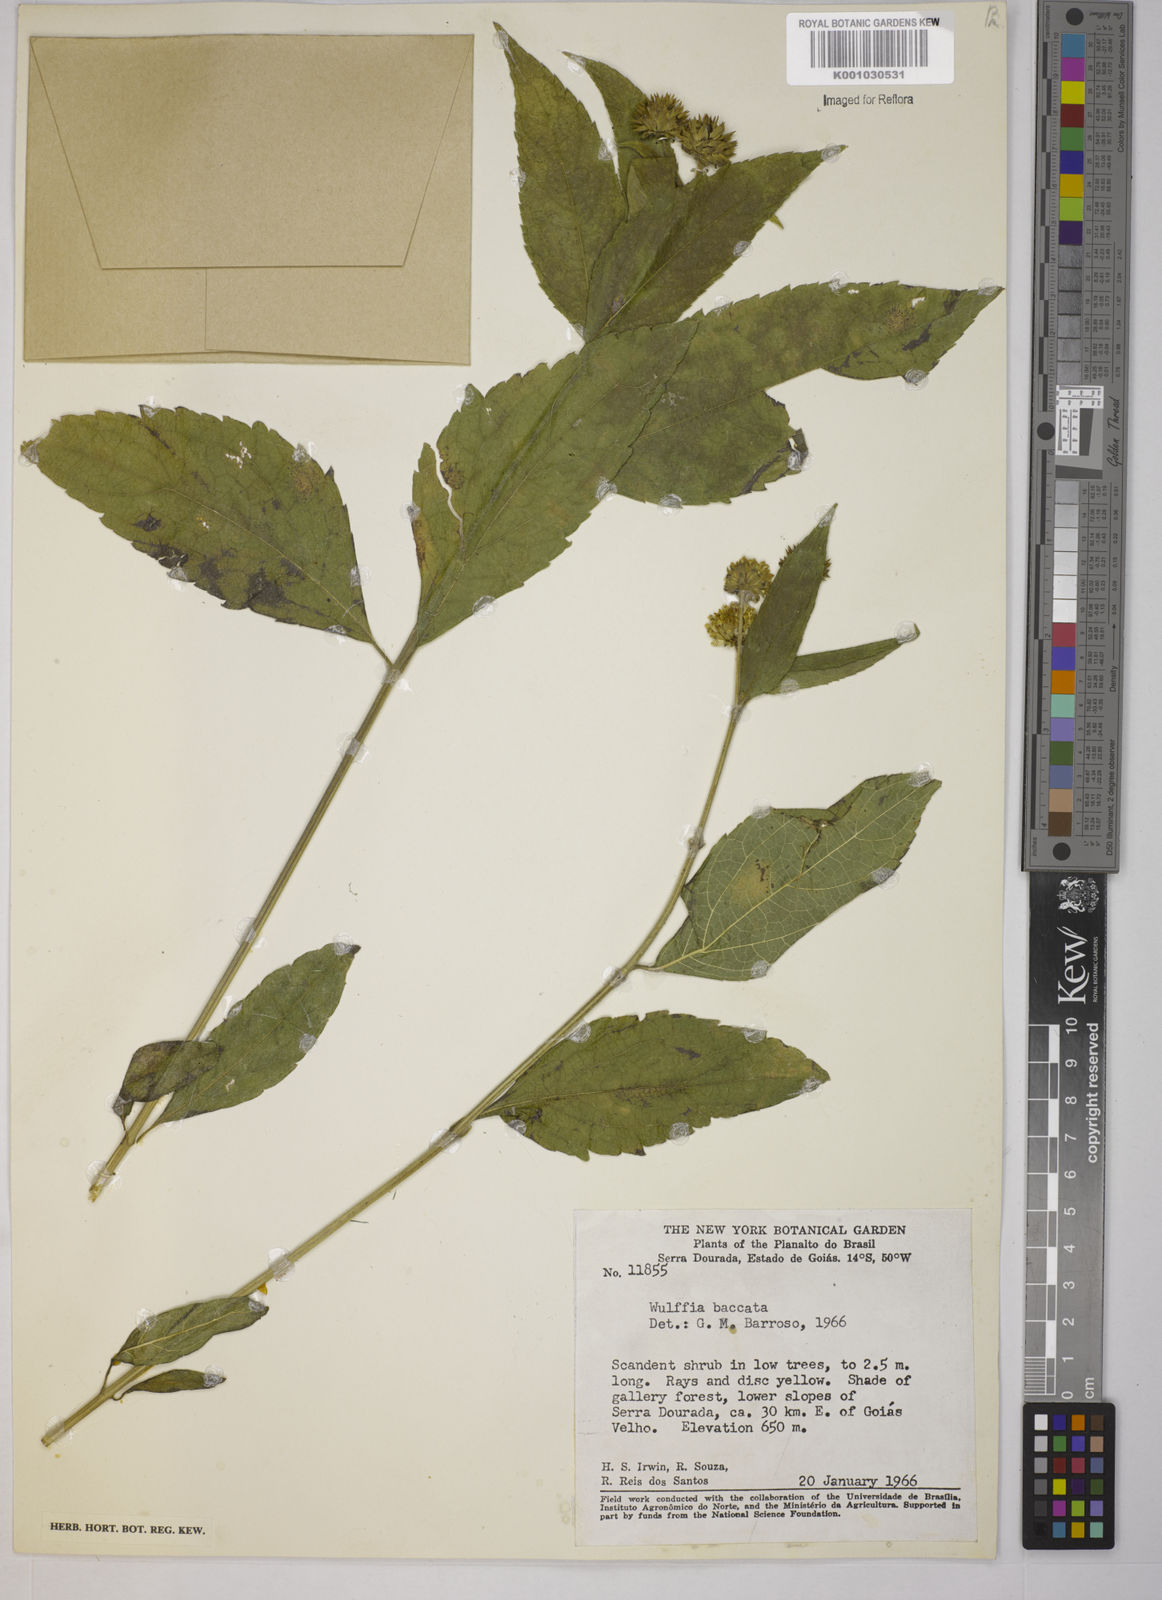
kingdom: Plantae
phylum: Tracheophyta
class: Magnoliopsida
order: Asterales
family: Asteraceae
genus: Tilesia
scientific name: Tilesia baccata
